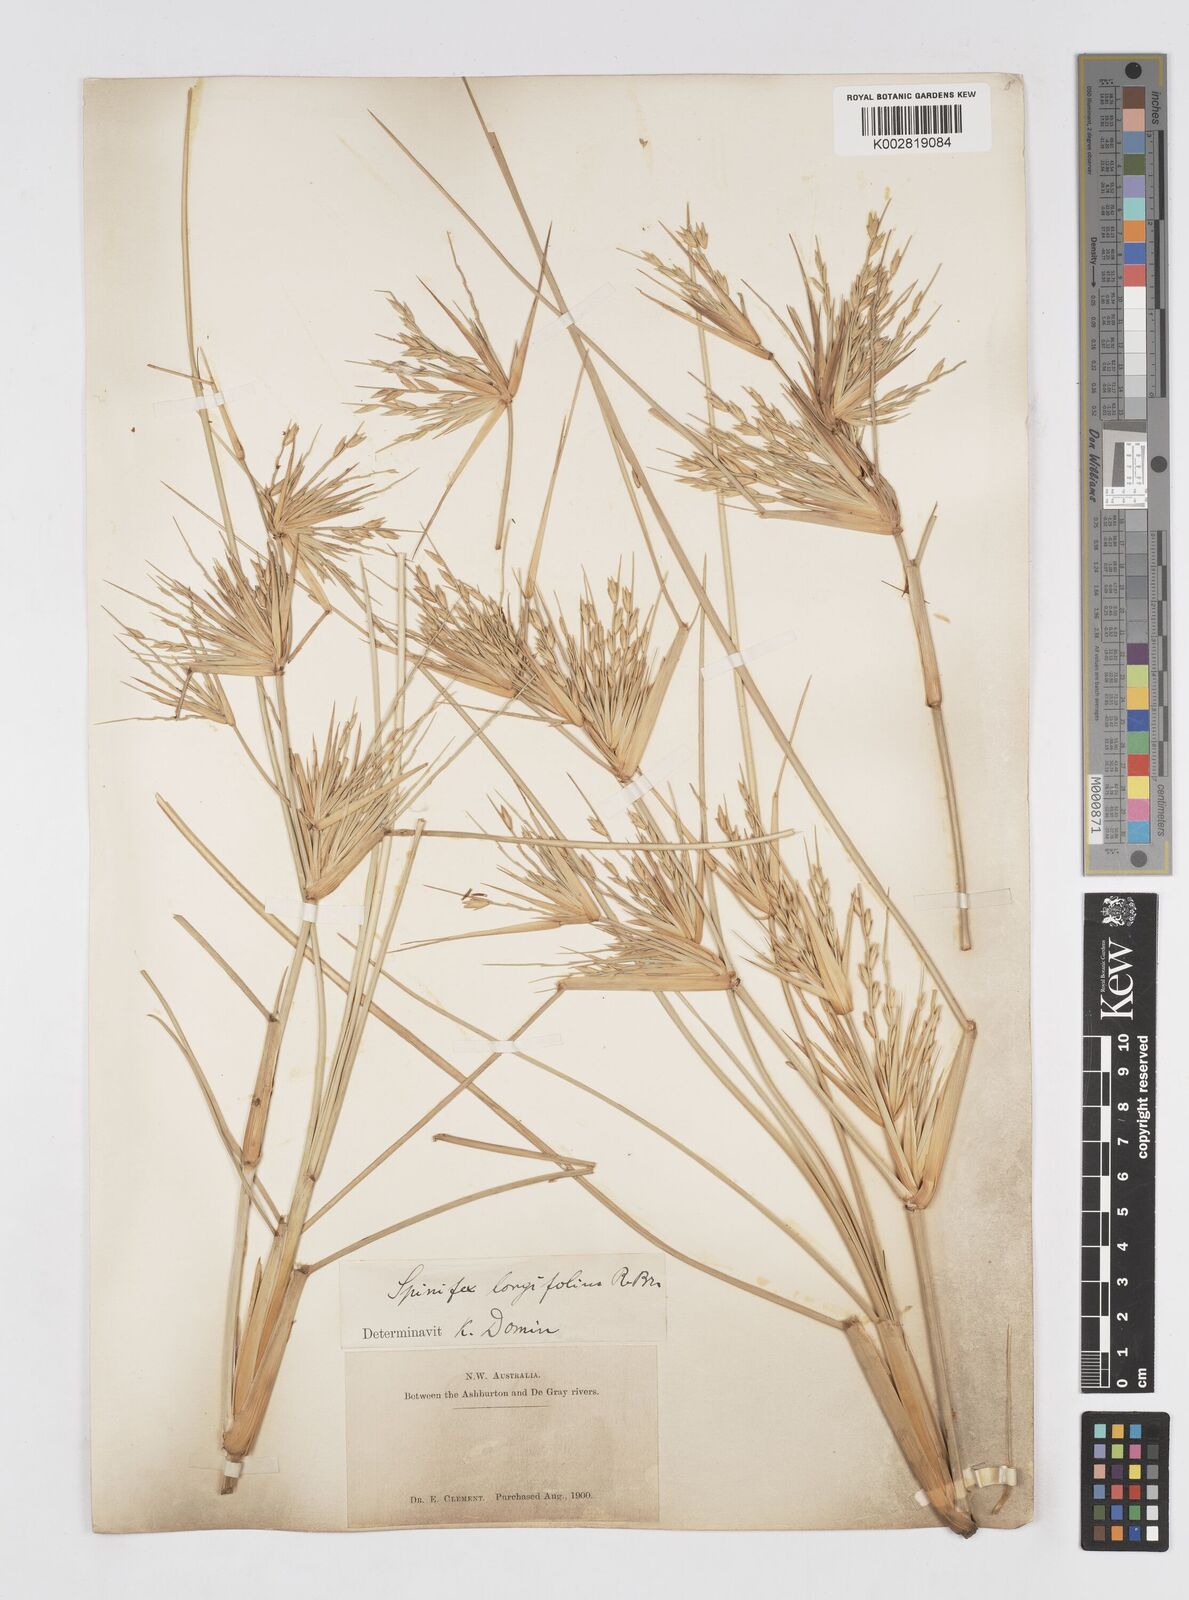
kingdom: Plantae
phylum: Tracheophyta
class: Liliopsida
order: Poales
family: Poaceae
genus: Spinifex
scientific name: Spinifex longifolius
